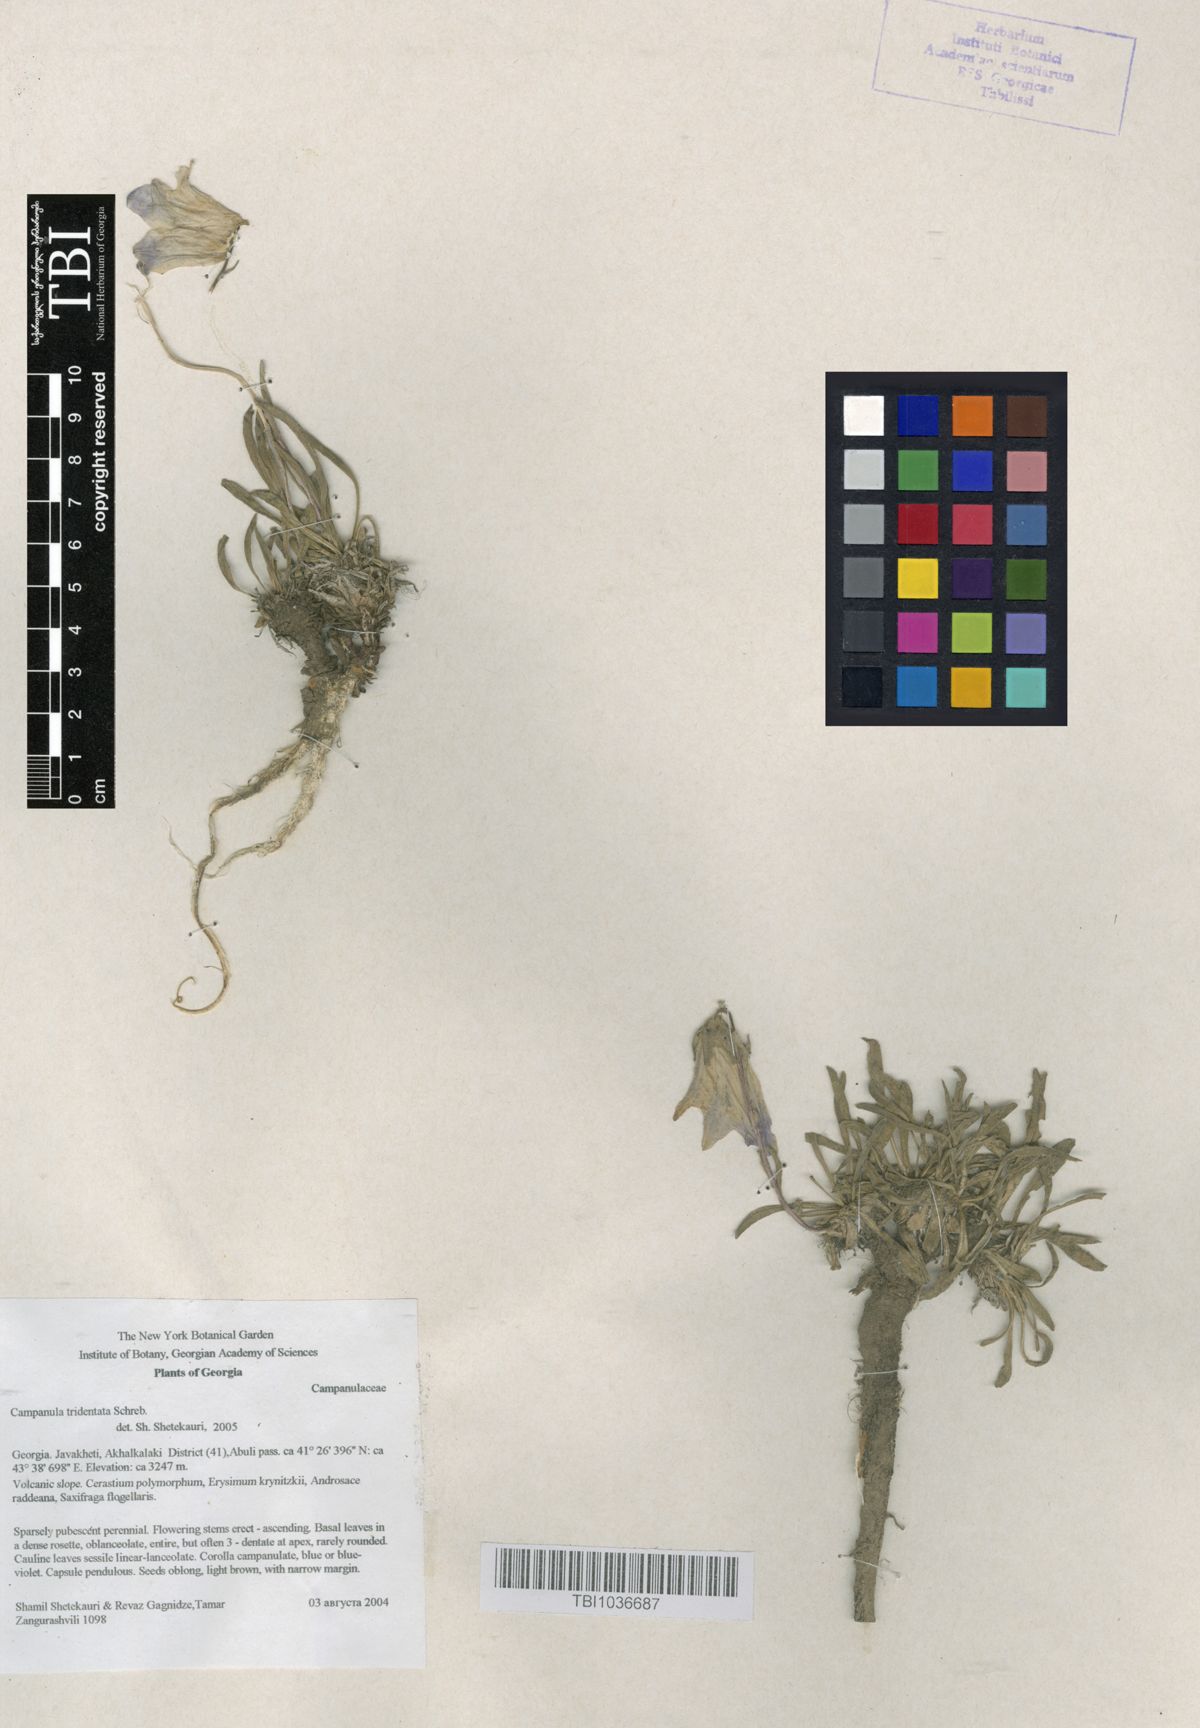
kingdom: Plantae
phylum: Tracheophyta
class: Magnoliopsida
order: Asterales
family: Campanulaceae
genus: Campanula
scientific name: Campanula tridentata
